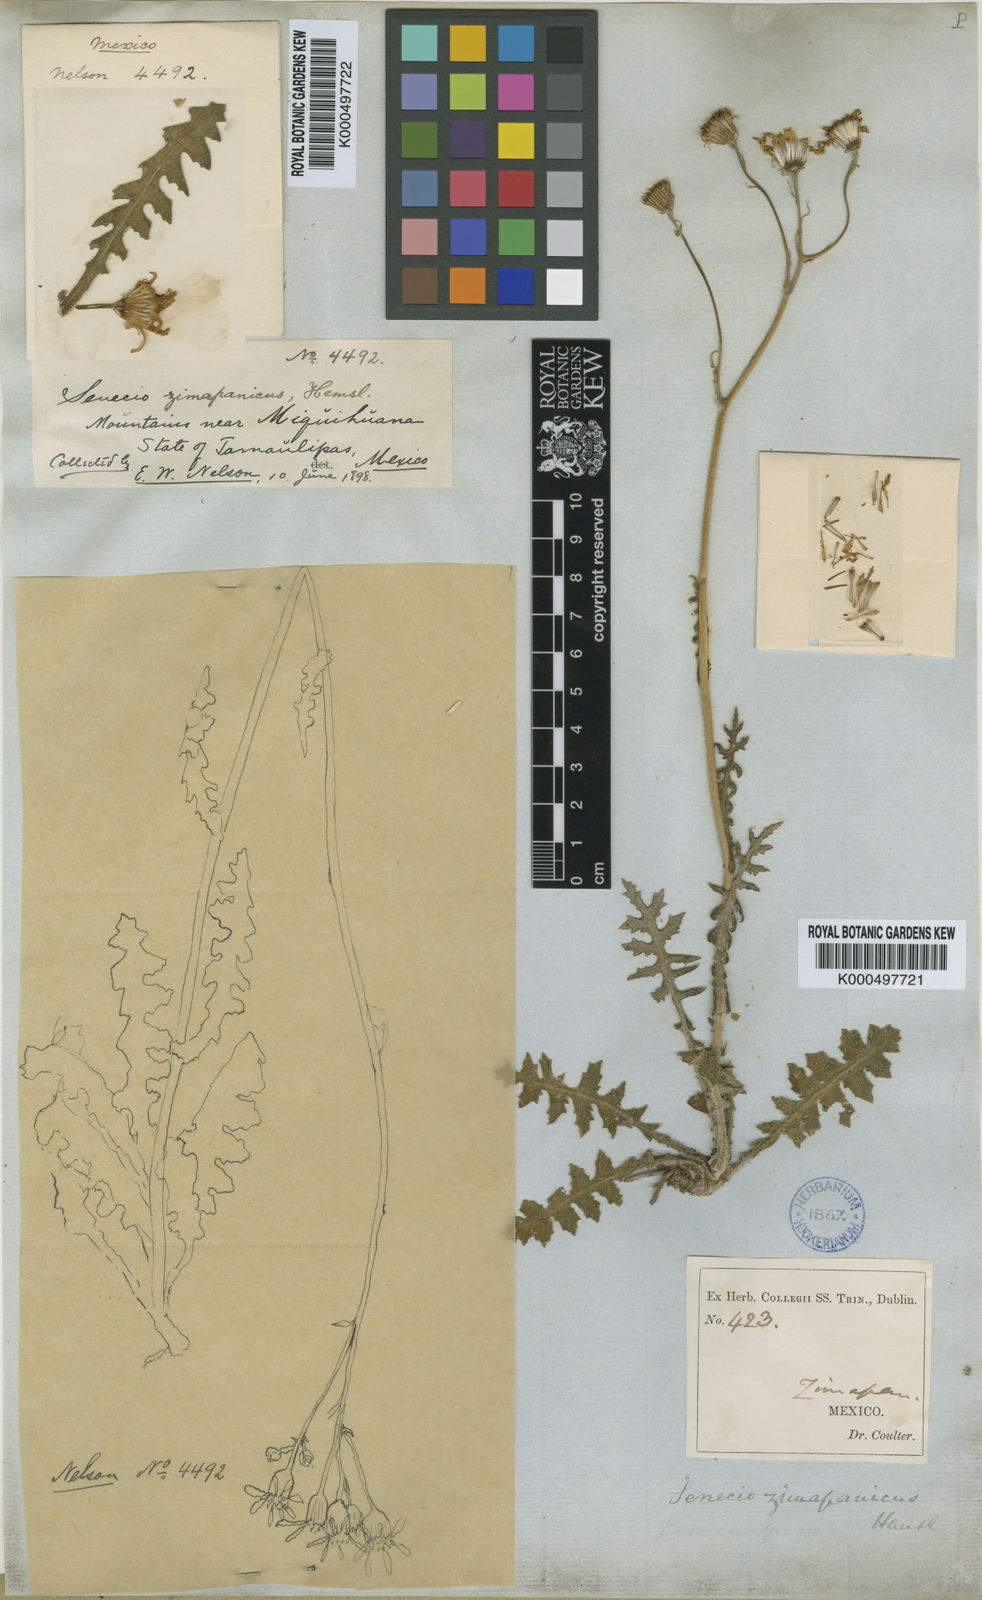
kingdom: Plantae
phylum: Tracheophyta
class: Magnoliopsida
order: Asterales
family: Asteraceae
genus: Packera
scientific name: Packera zimapanica
